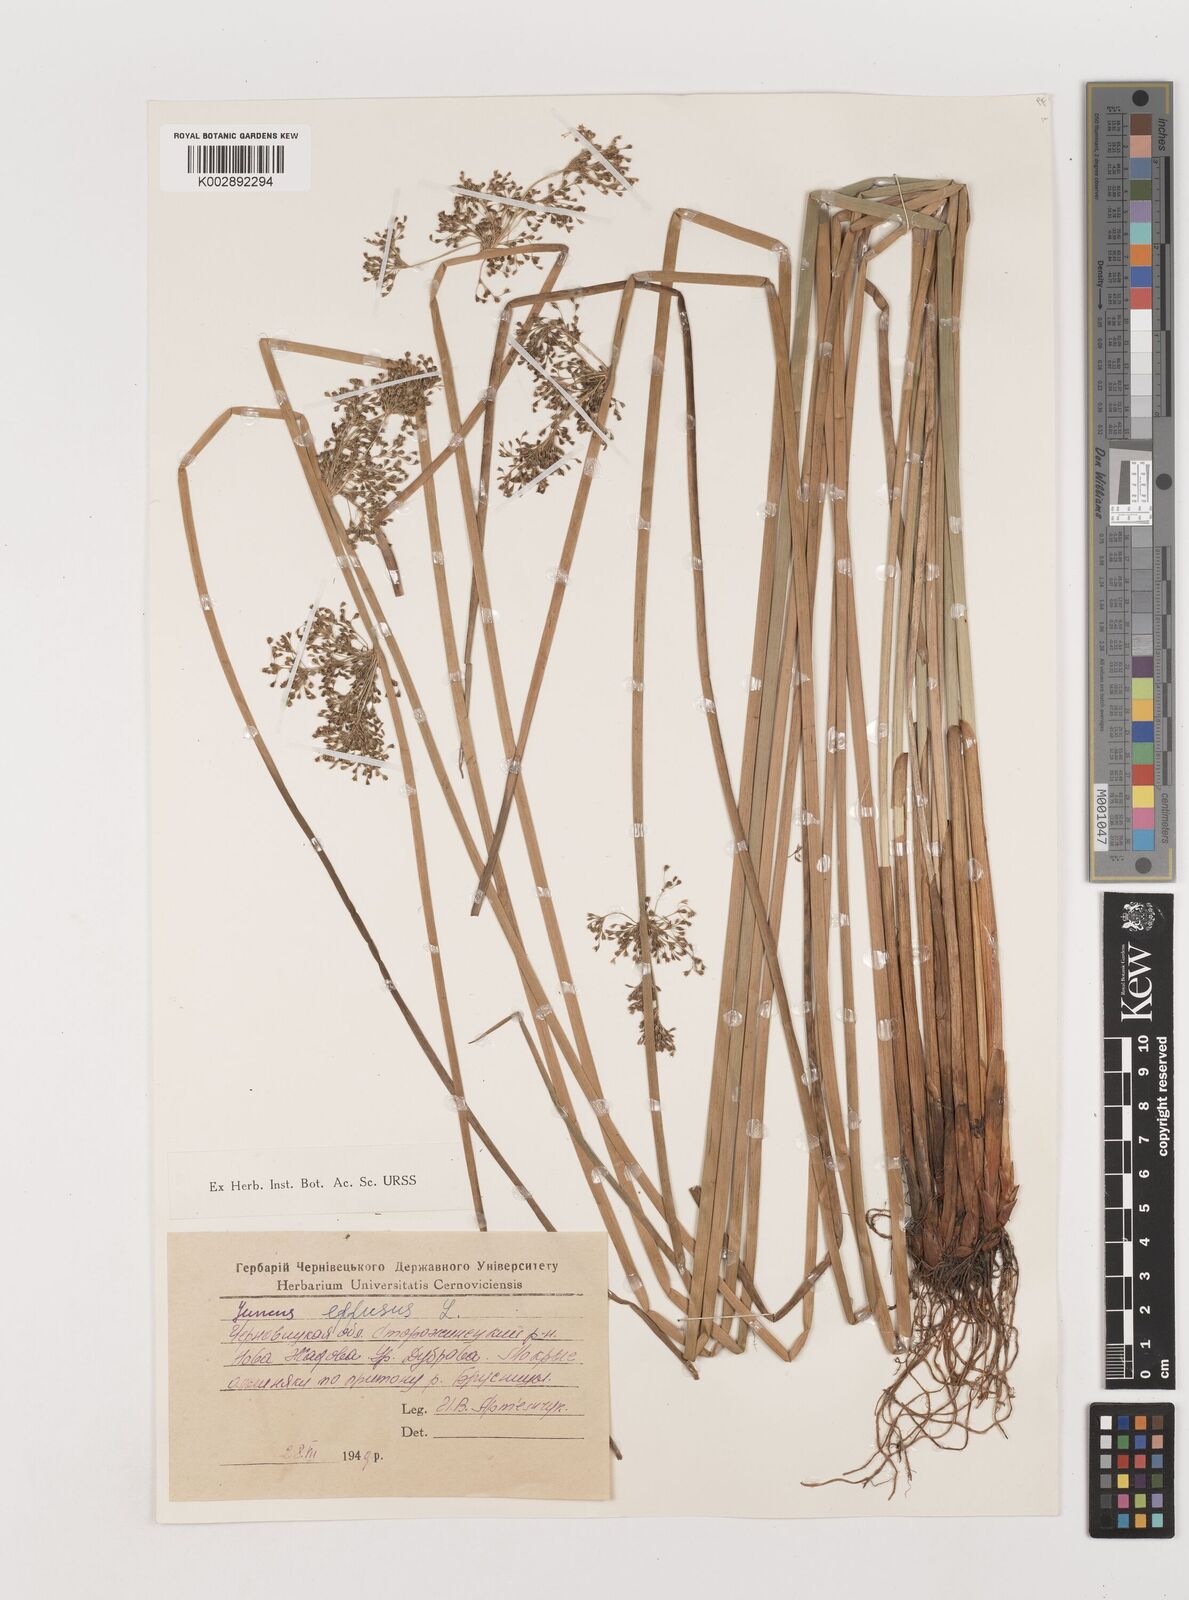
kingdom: Plantae
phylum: Tracheophyta
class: Liliopsida
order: Poales
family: Juncaceae
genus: Juncus
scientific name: Juncus effusus
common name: Soft rush
